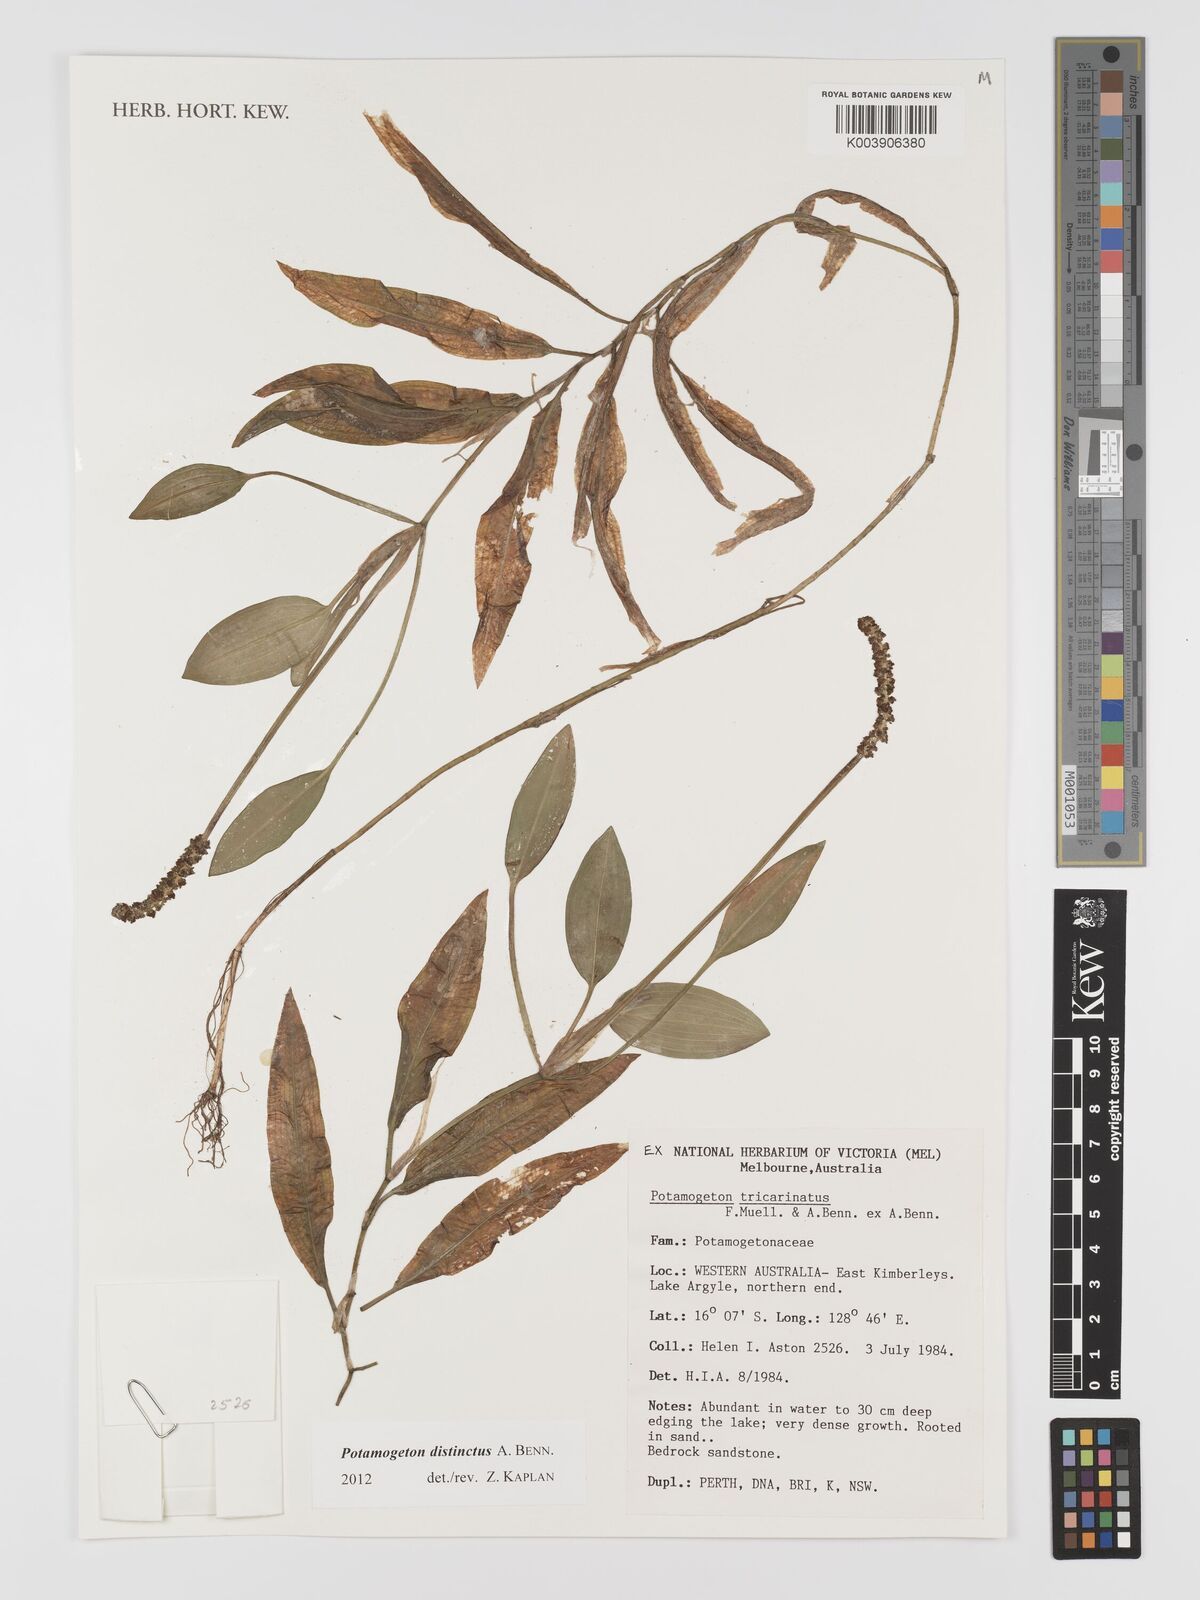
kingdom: Plantae
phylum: Tracheophyta
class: Liliopsida
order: Alismatales
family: Potamogetonaceae
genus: Potamogeton
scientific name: Potamogeton tricarinatus
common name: Pondweed
